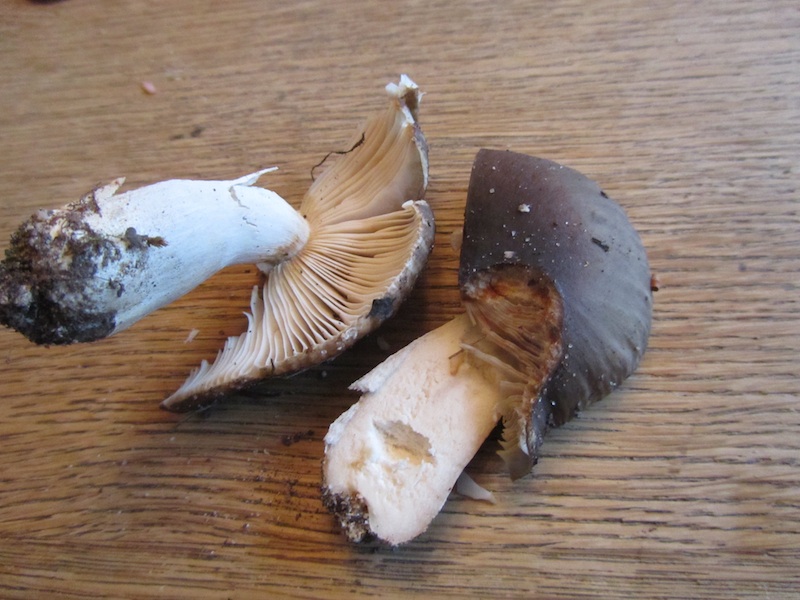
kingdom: Fungi
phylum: Basidiomycota
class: Agaricomycetes
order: Russulales
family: Russulaceae
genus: Russula
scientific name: Russula densifolia
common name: tætbladet skørhat
